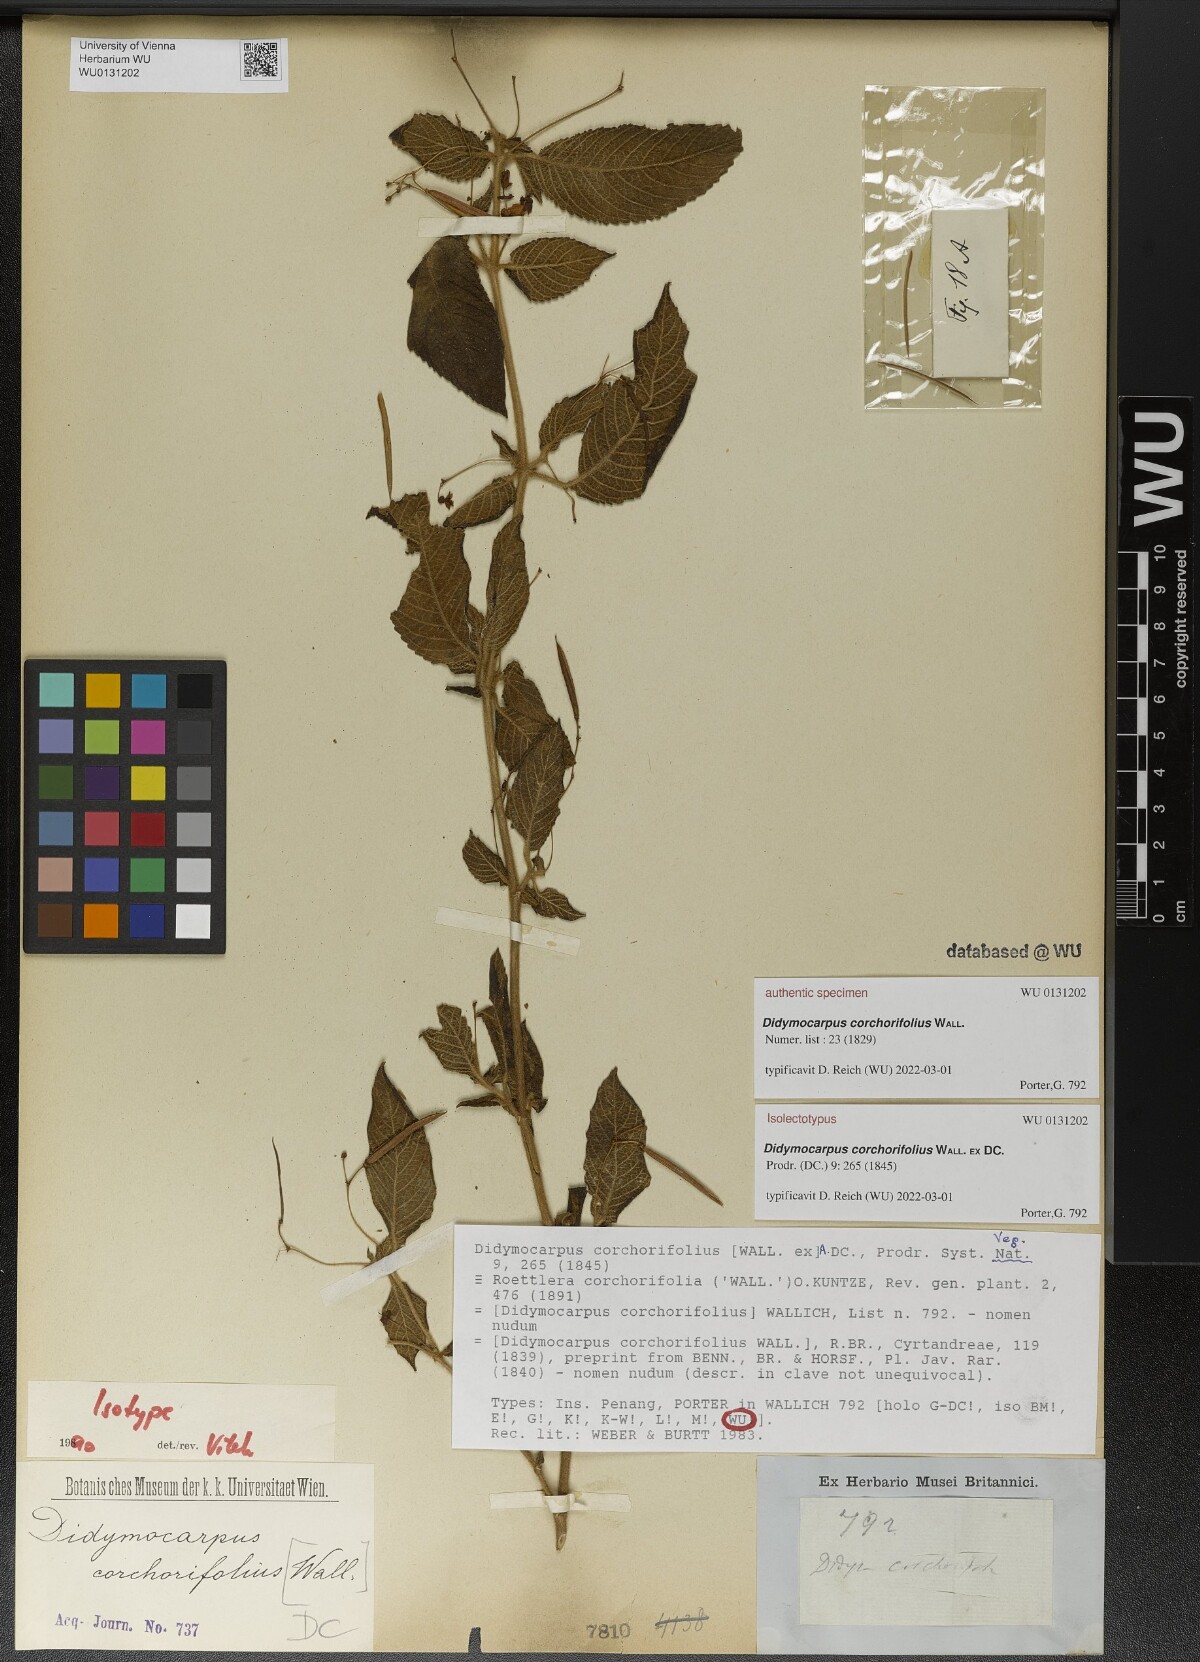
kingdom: Plantae
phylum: Tracheophyta
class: Magnoliopsida
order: Lamiales
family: Gesneriaceae
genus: Didymocarpus
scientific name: Didymocarpus corchorifolius
